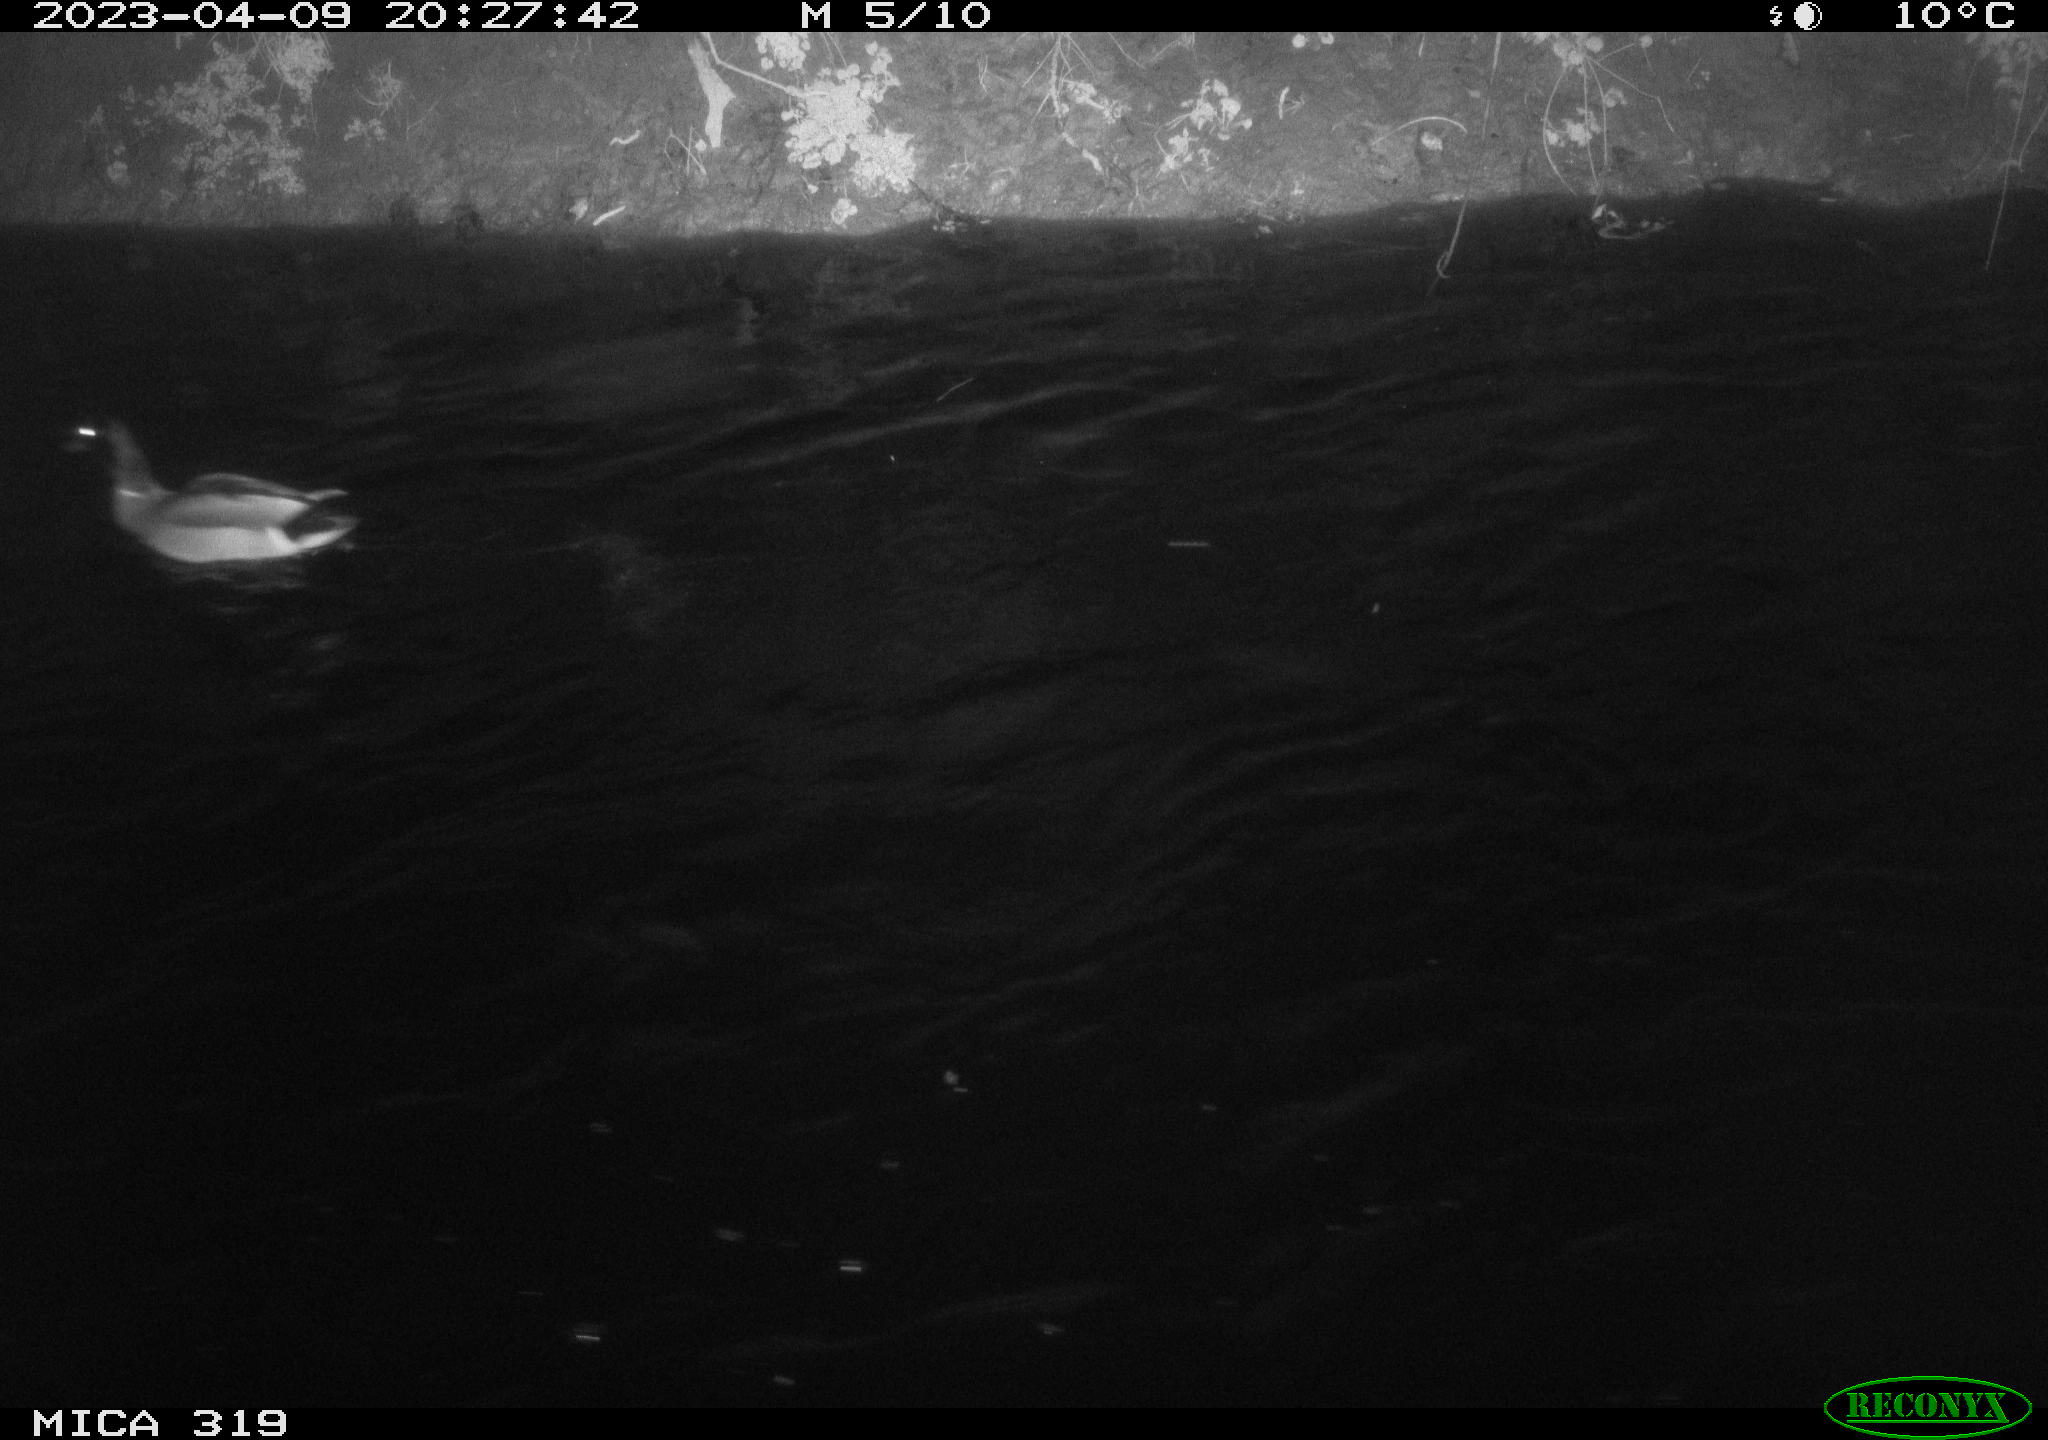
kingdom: Animalia
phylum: Chordata
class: Aves
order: Anseriformes
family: Anatidae
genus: Anas
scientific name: Anas
